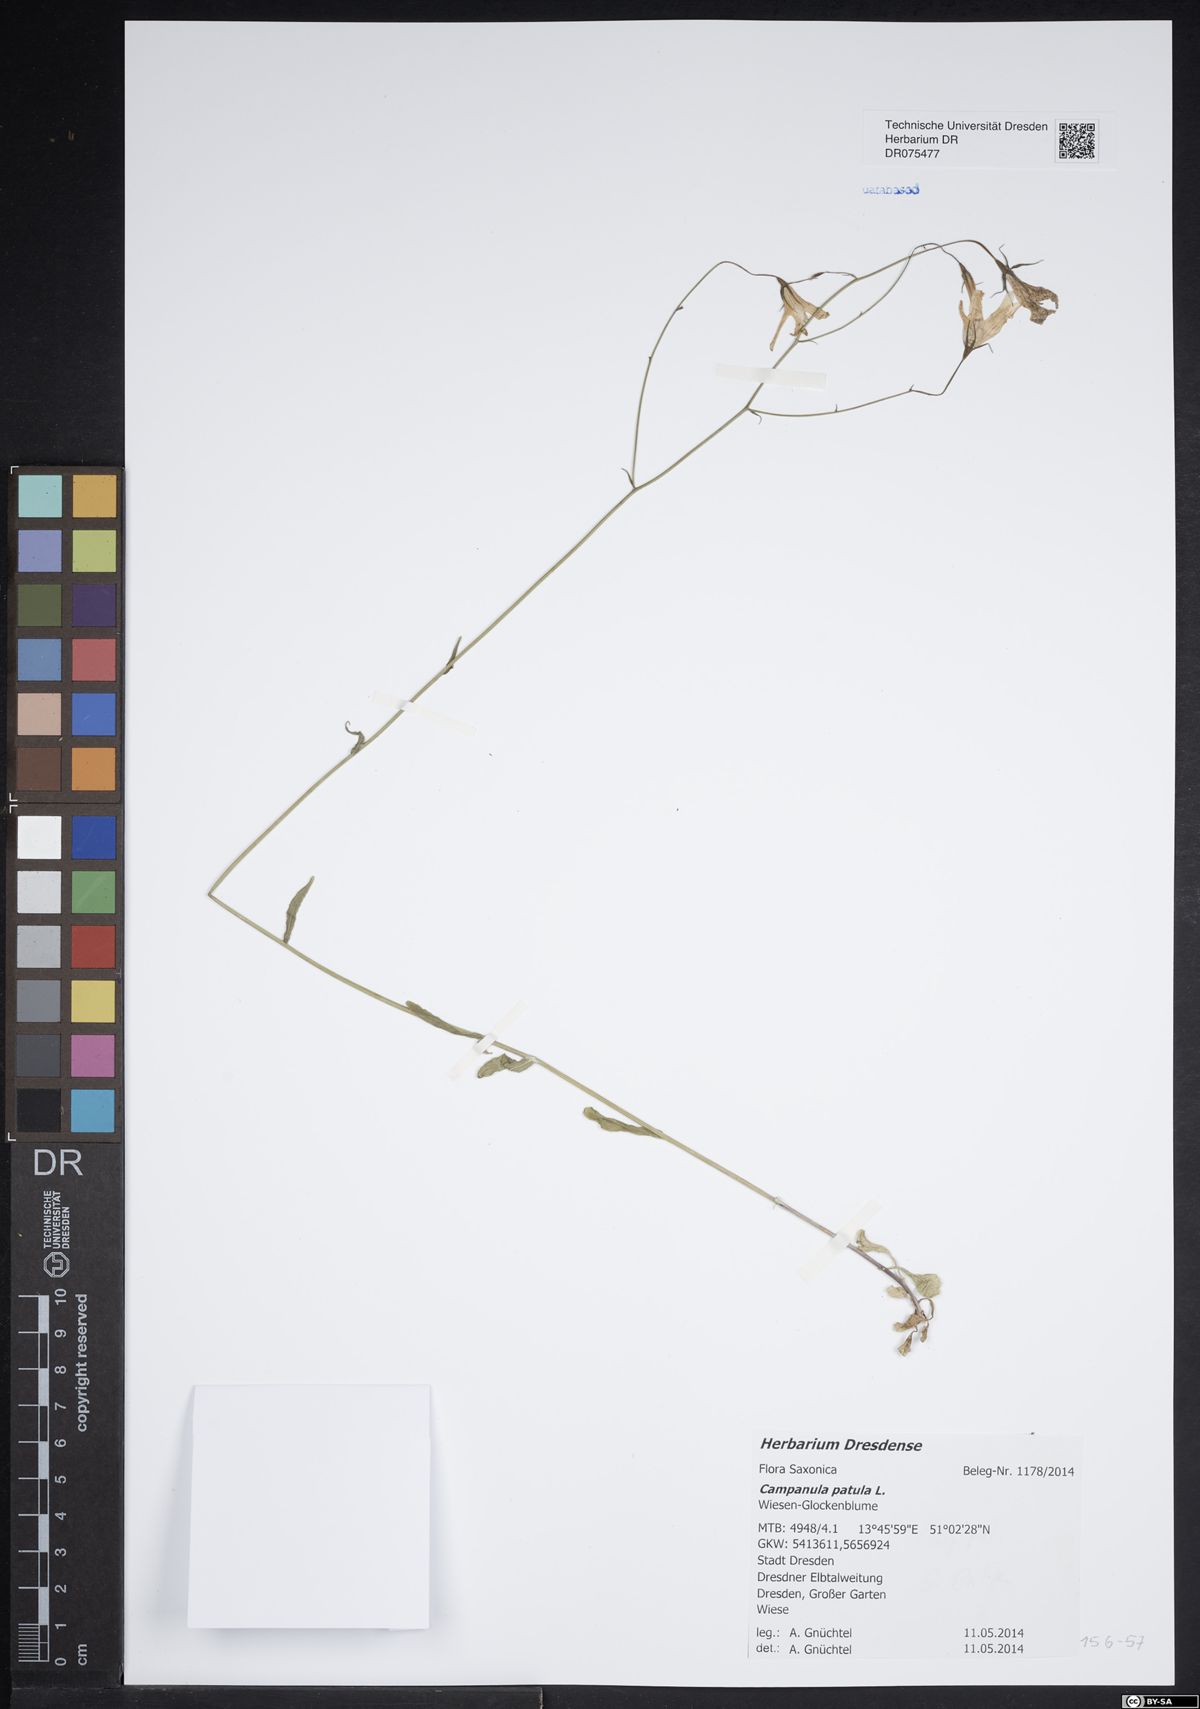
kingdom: Plantae
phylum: Tracheophyta
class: Magnoliopsida
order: Asterales
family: Campanulaceae
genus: Campanula
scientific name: Campanula patula
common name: Spreading bellflower
